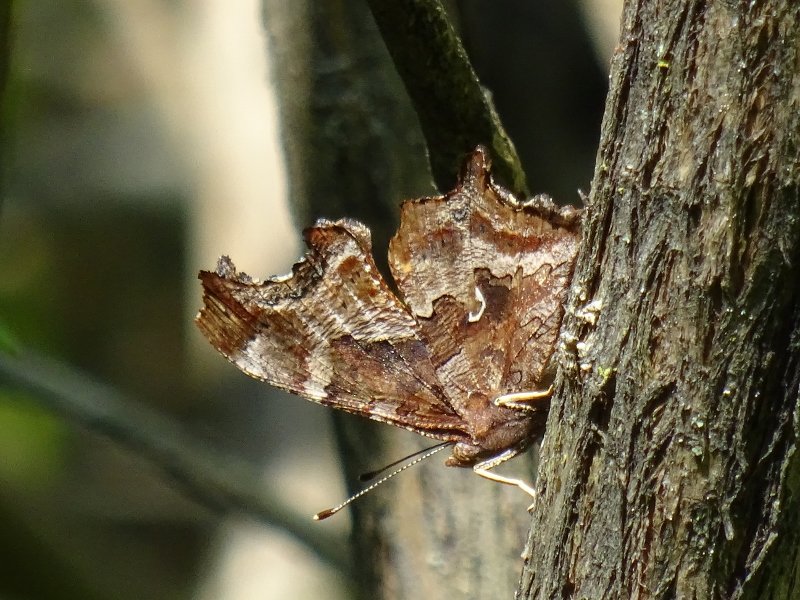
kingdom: Animalia
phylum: Arthropoda
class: Insecta
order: Lepidoptera
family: Nymphalidae
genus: Polygonia
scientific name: Polygonia comma
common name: Eastern Comma
